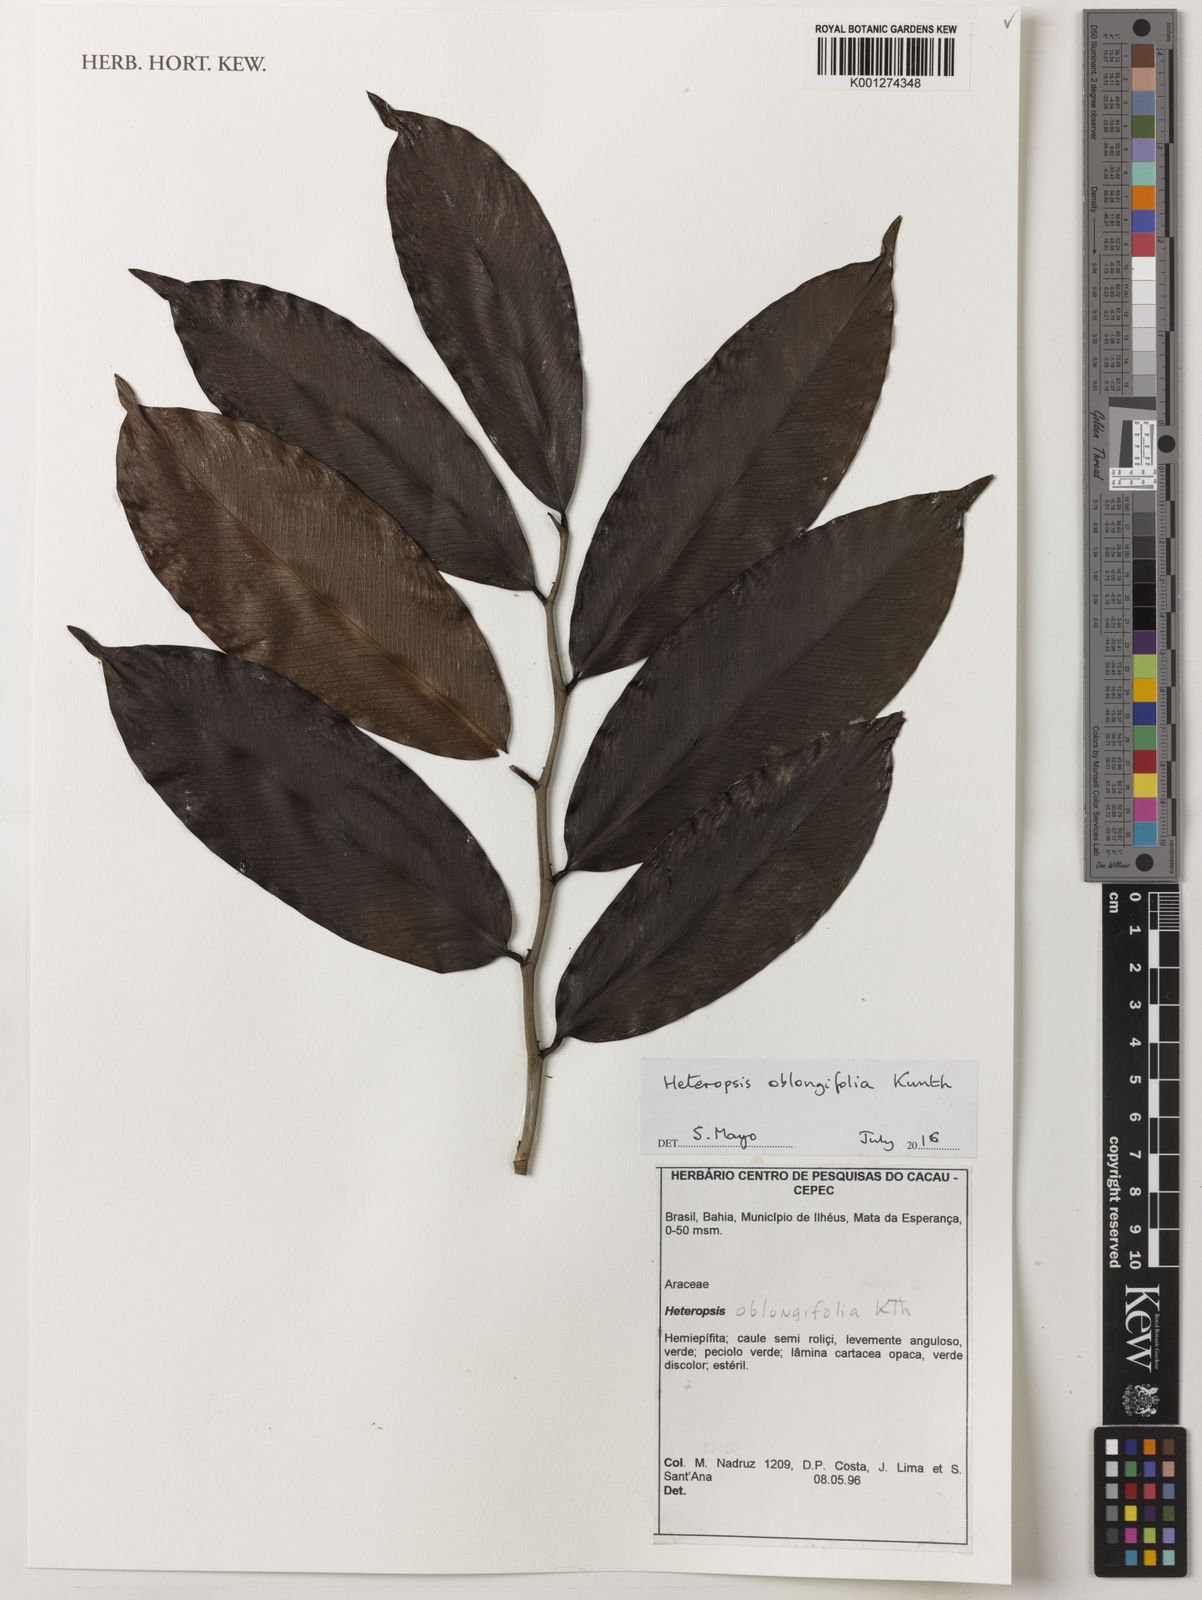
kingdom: Plantae
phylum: Tracheophyta
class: Liliopsida
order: Alismatales
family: Araceae
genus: Heteropsis
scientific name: Heteropsis oblongifolia
